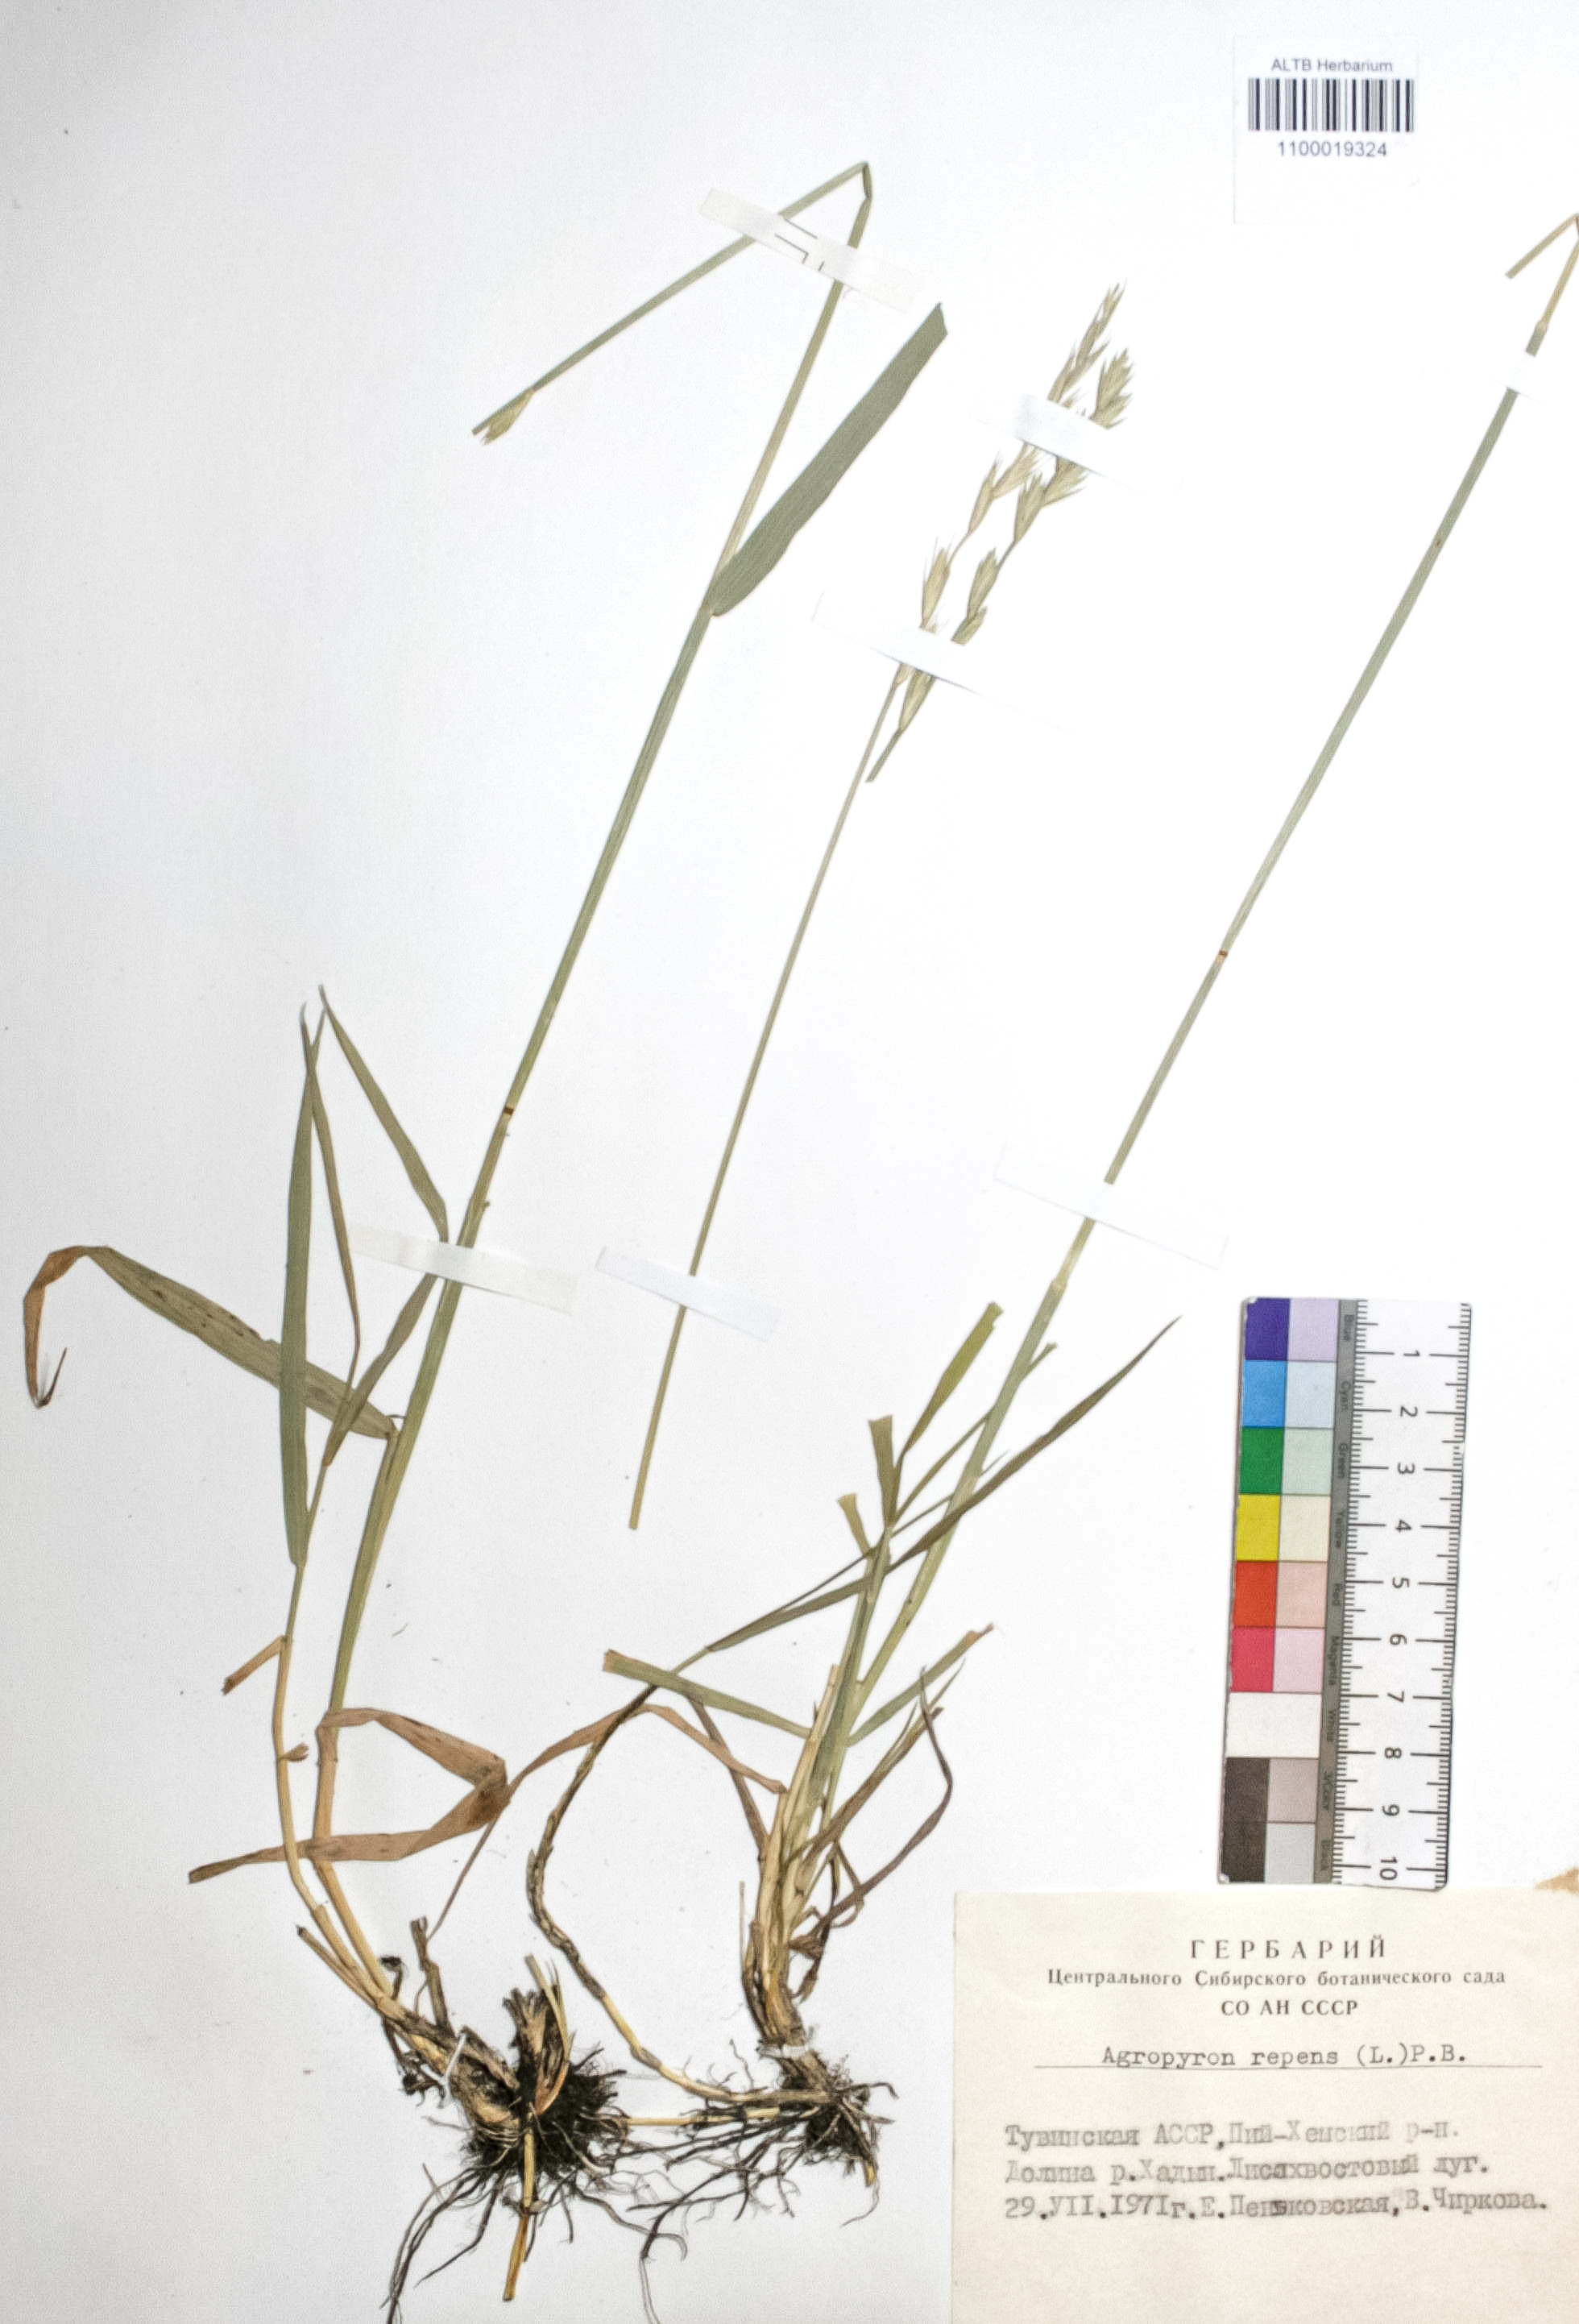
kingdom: Plantae
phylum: Tracheophyta
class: Liliopsida
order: Poales
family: Poaceae
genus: Elymus
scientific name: Elymus repens
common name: Quackgrass
